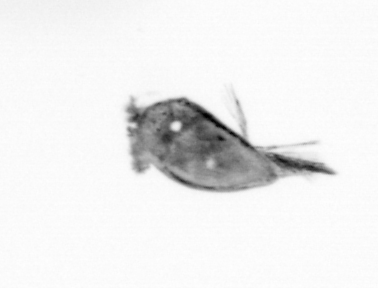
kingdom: Animalia
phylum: Arthropoda
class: Maxillopoda
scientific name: Maxillopoda
